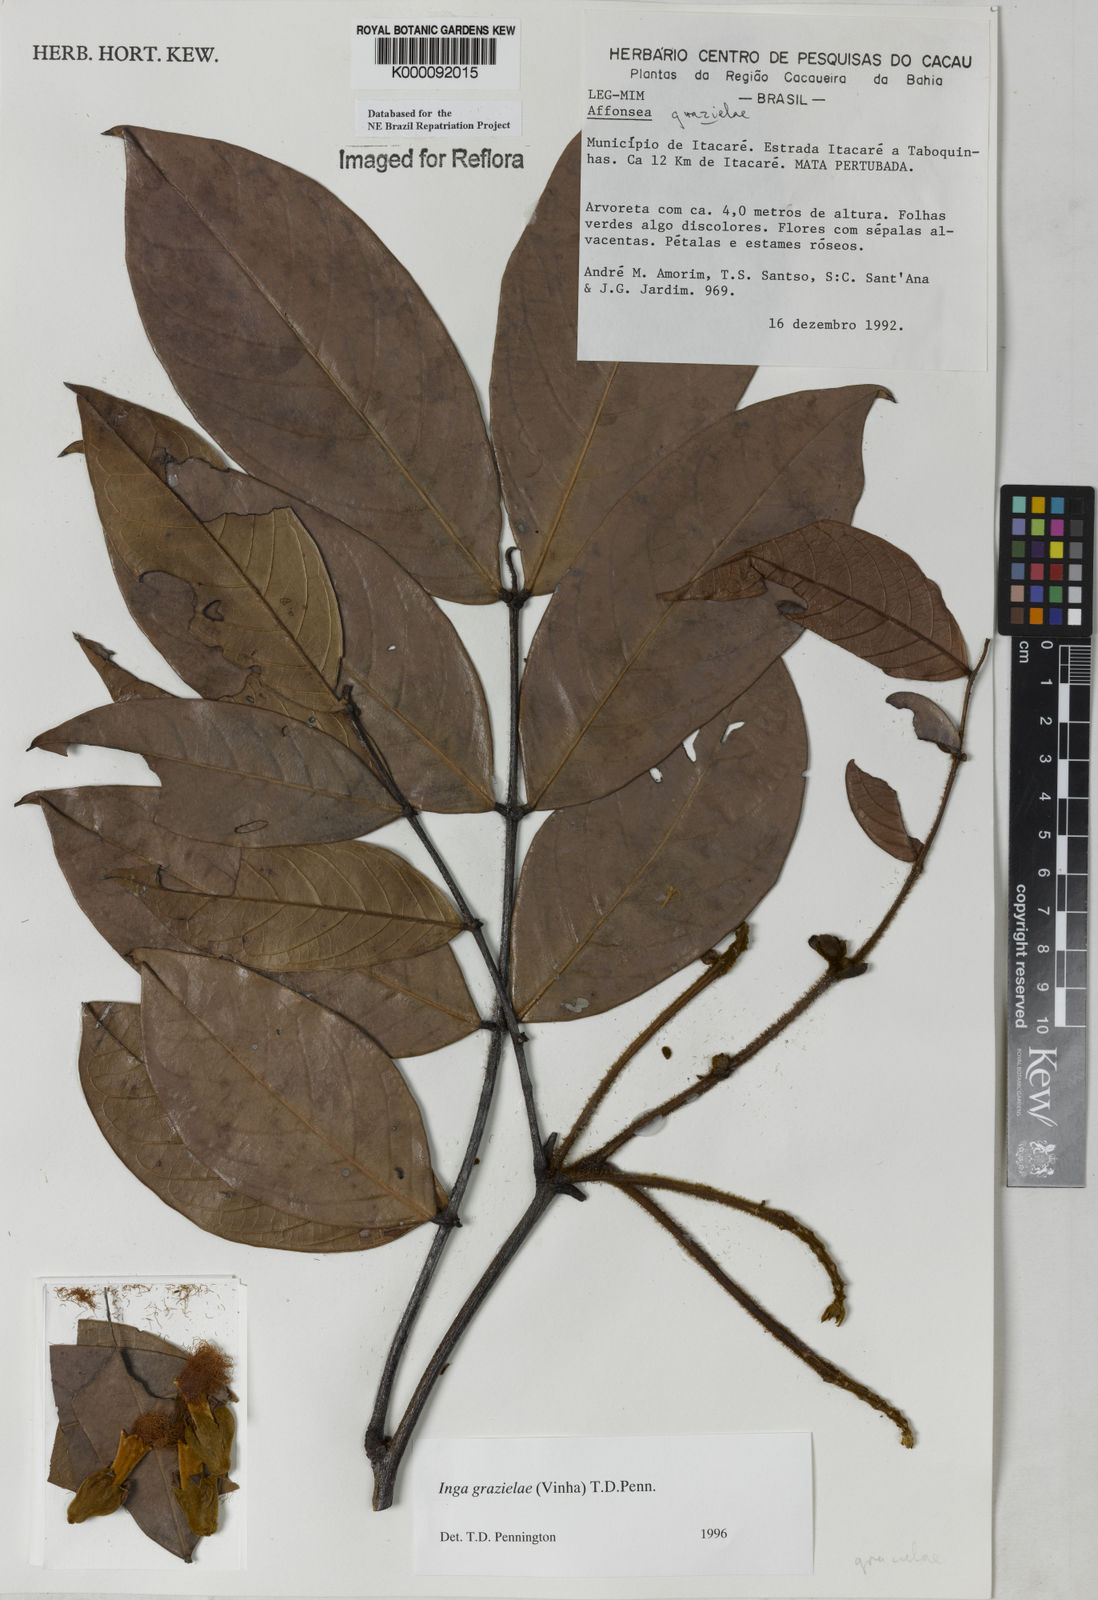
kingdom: Plantae
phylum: Tracheophyta
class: Magnoliopsida
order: Fabales
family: Fabaceae
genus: Inga
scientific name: Inga grazielae
